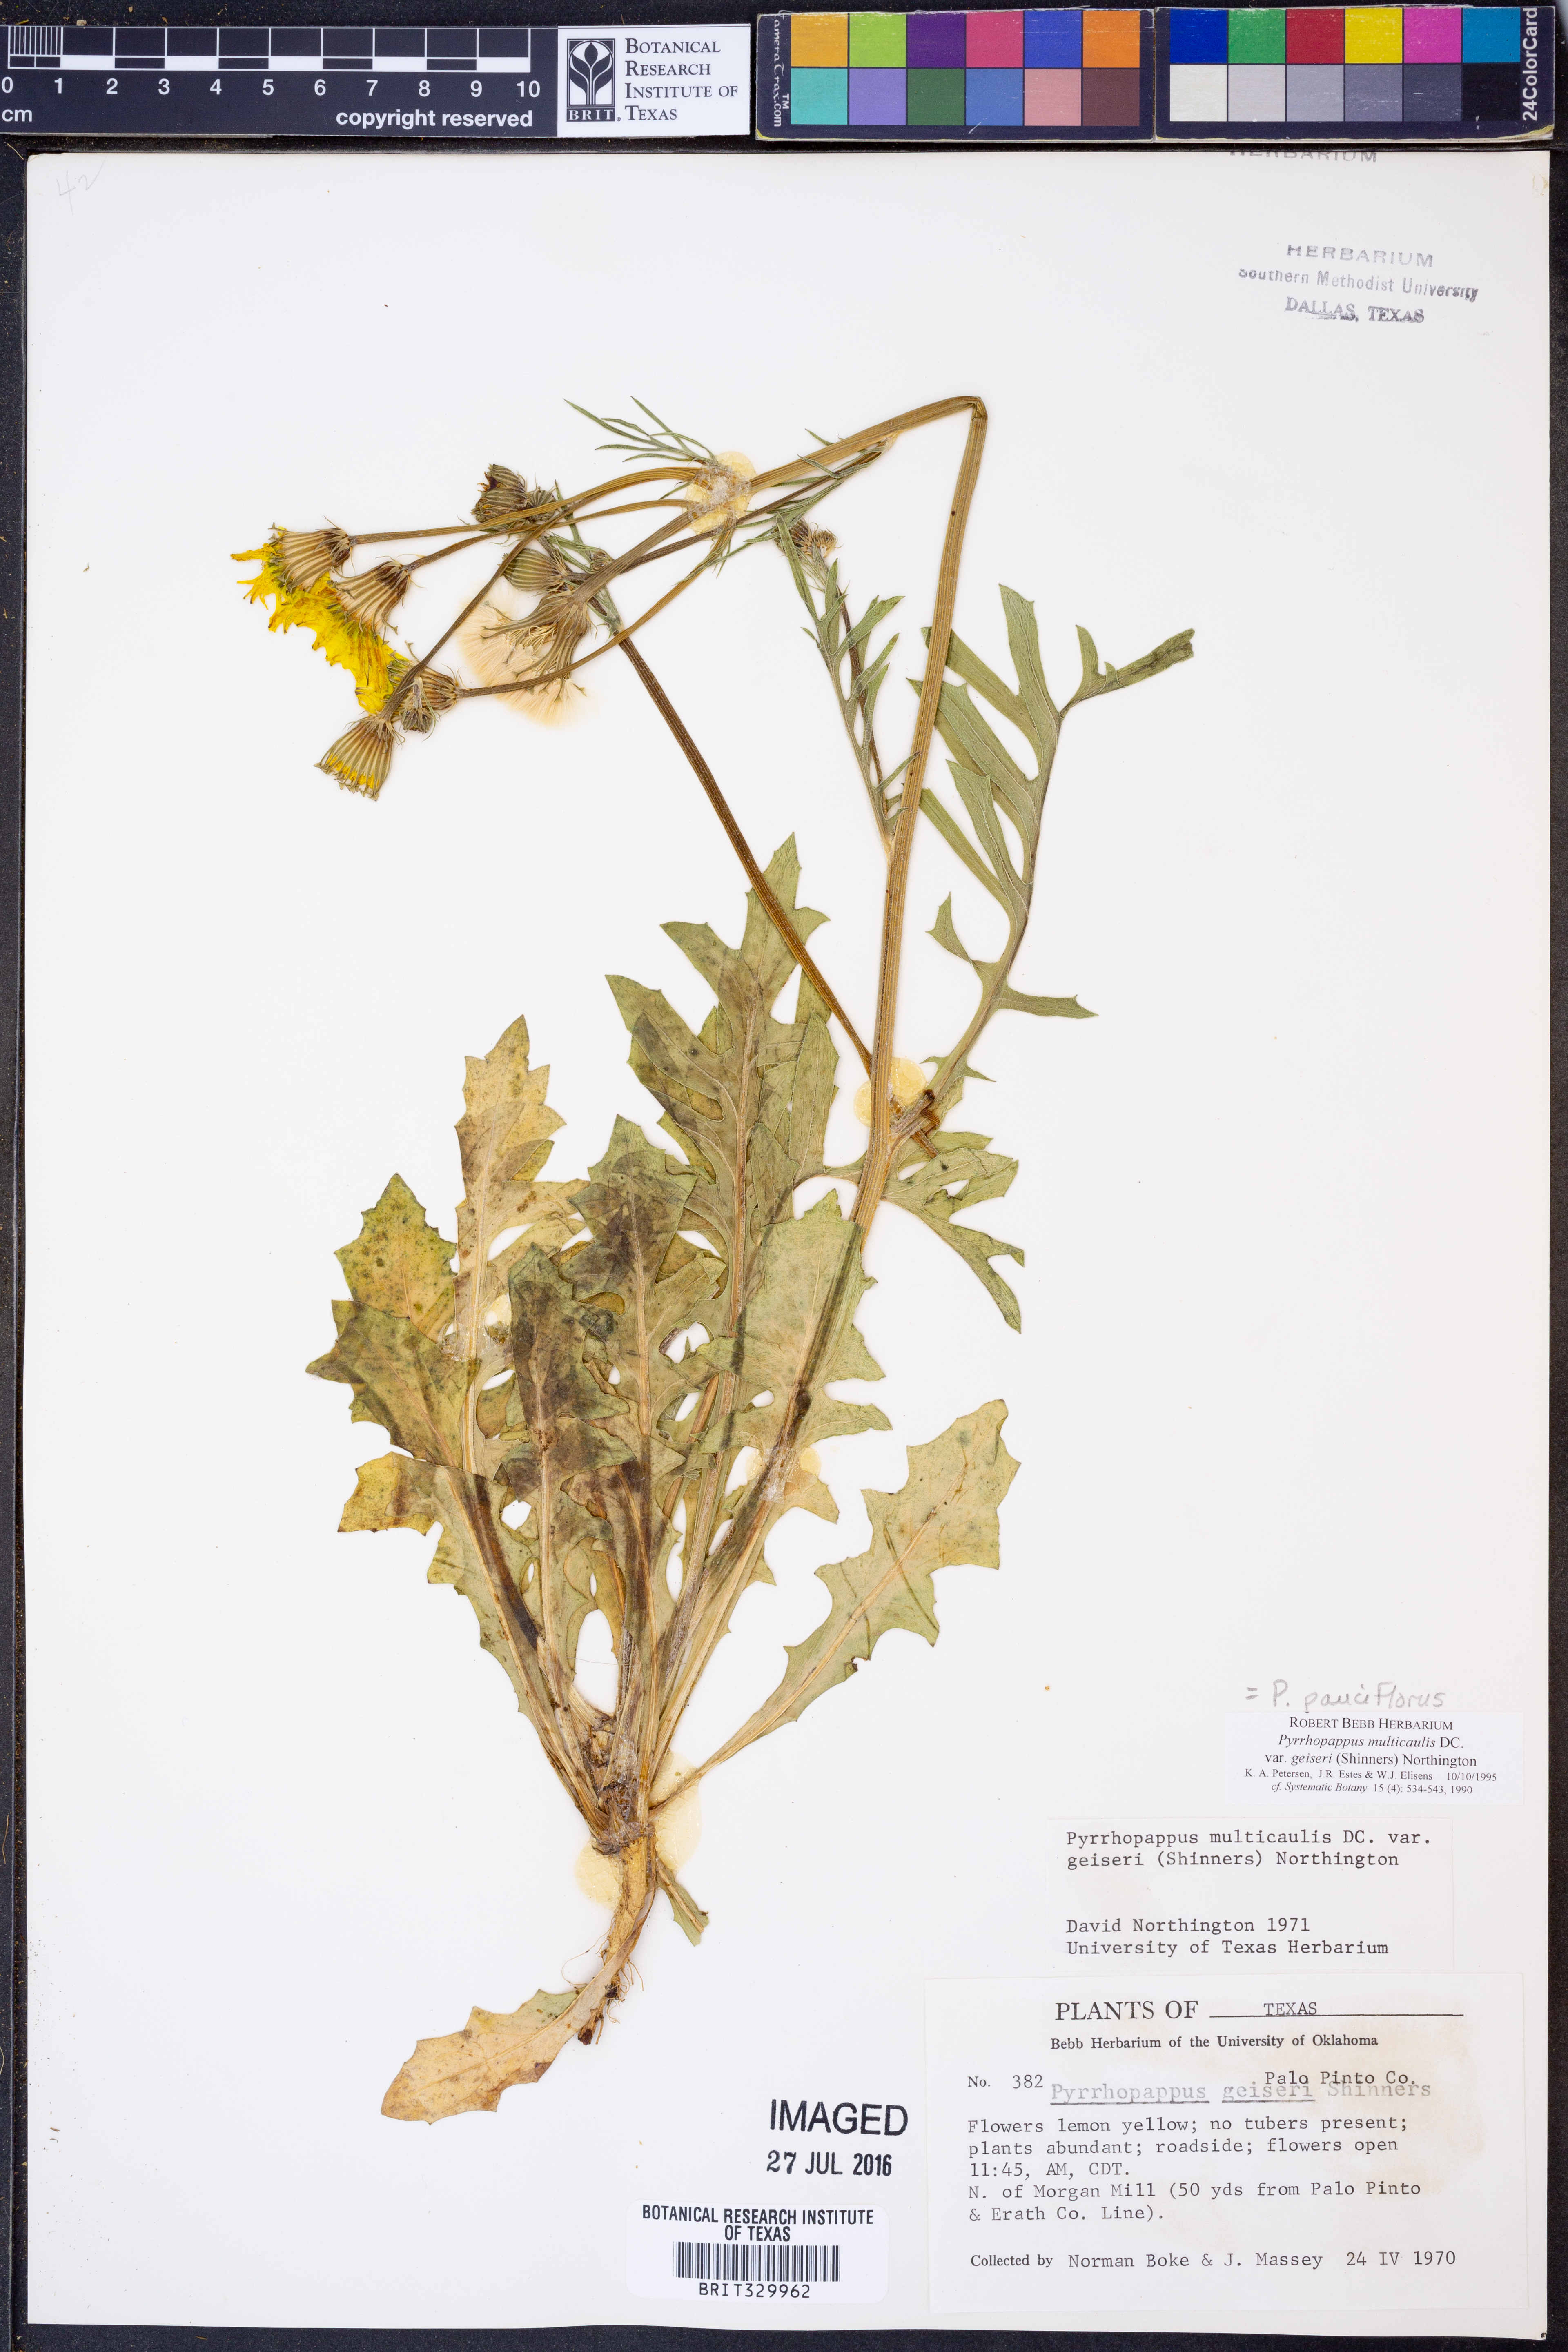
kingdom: Plantae
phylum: Tracheophyta
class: Magnoliopsida
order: Asterales
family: Asteraceae
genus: Pyrrhopappus
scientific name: Pyrrhopappus pauciflorus
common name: Texas false dandelion
